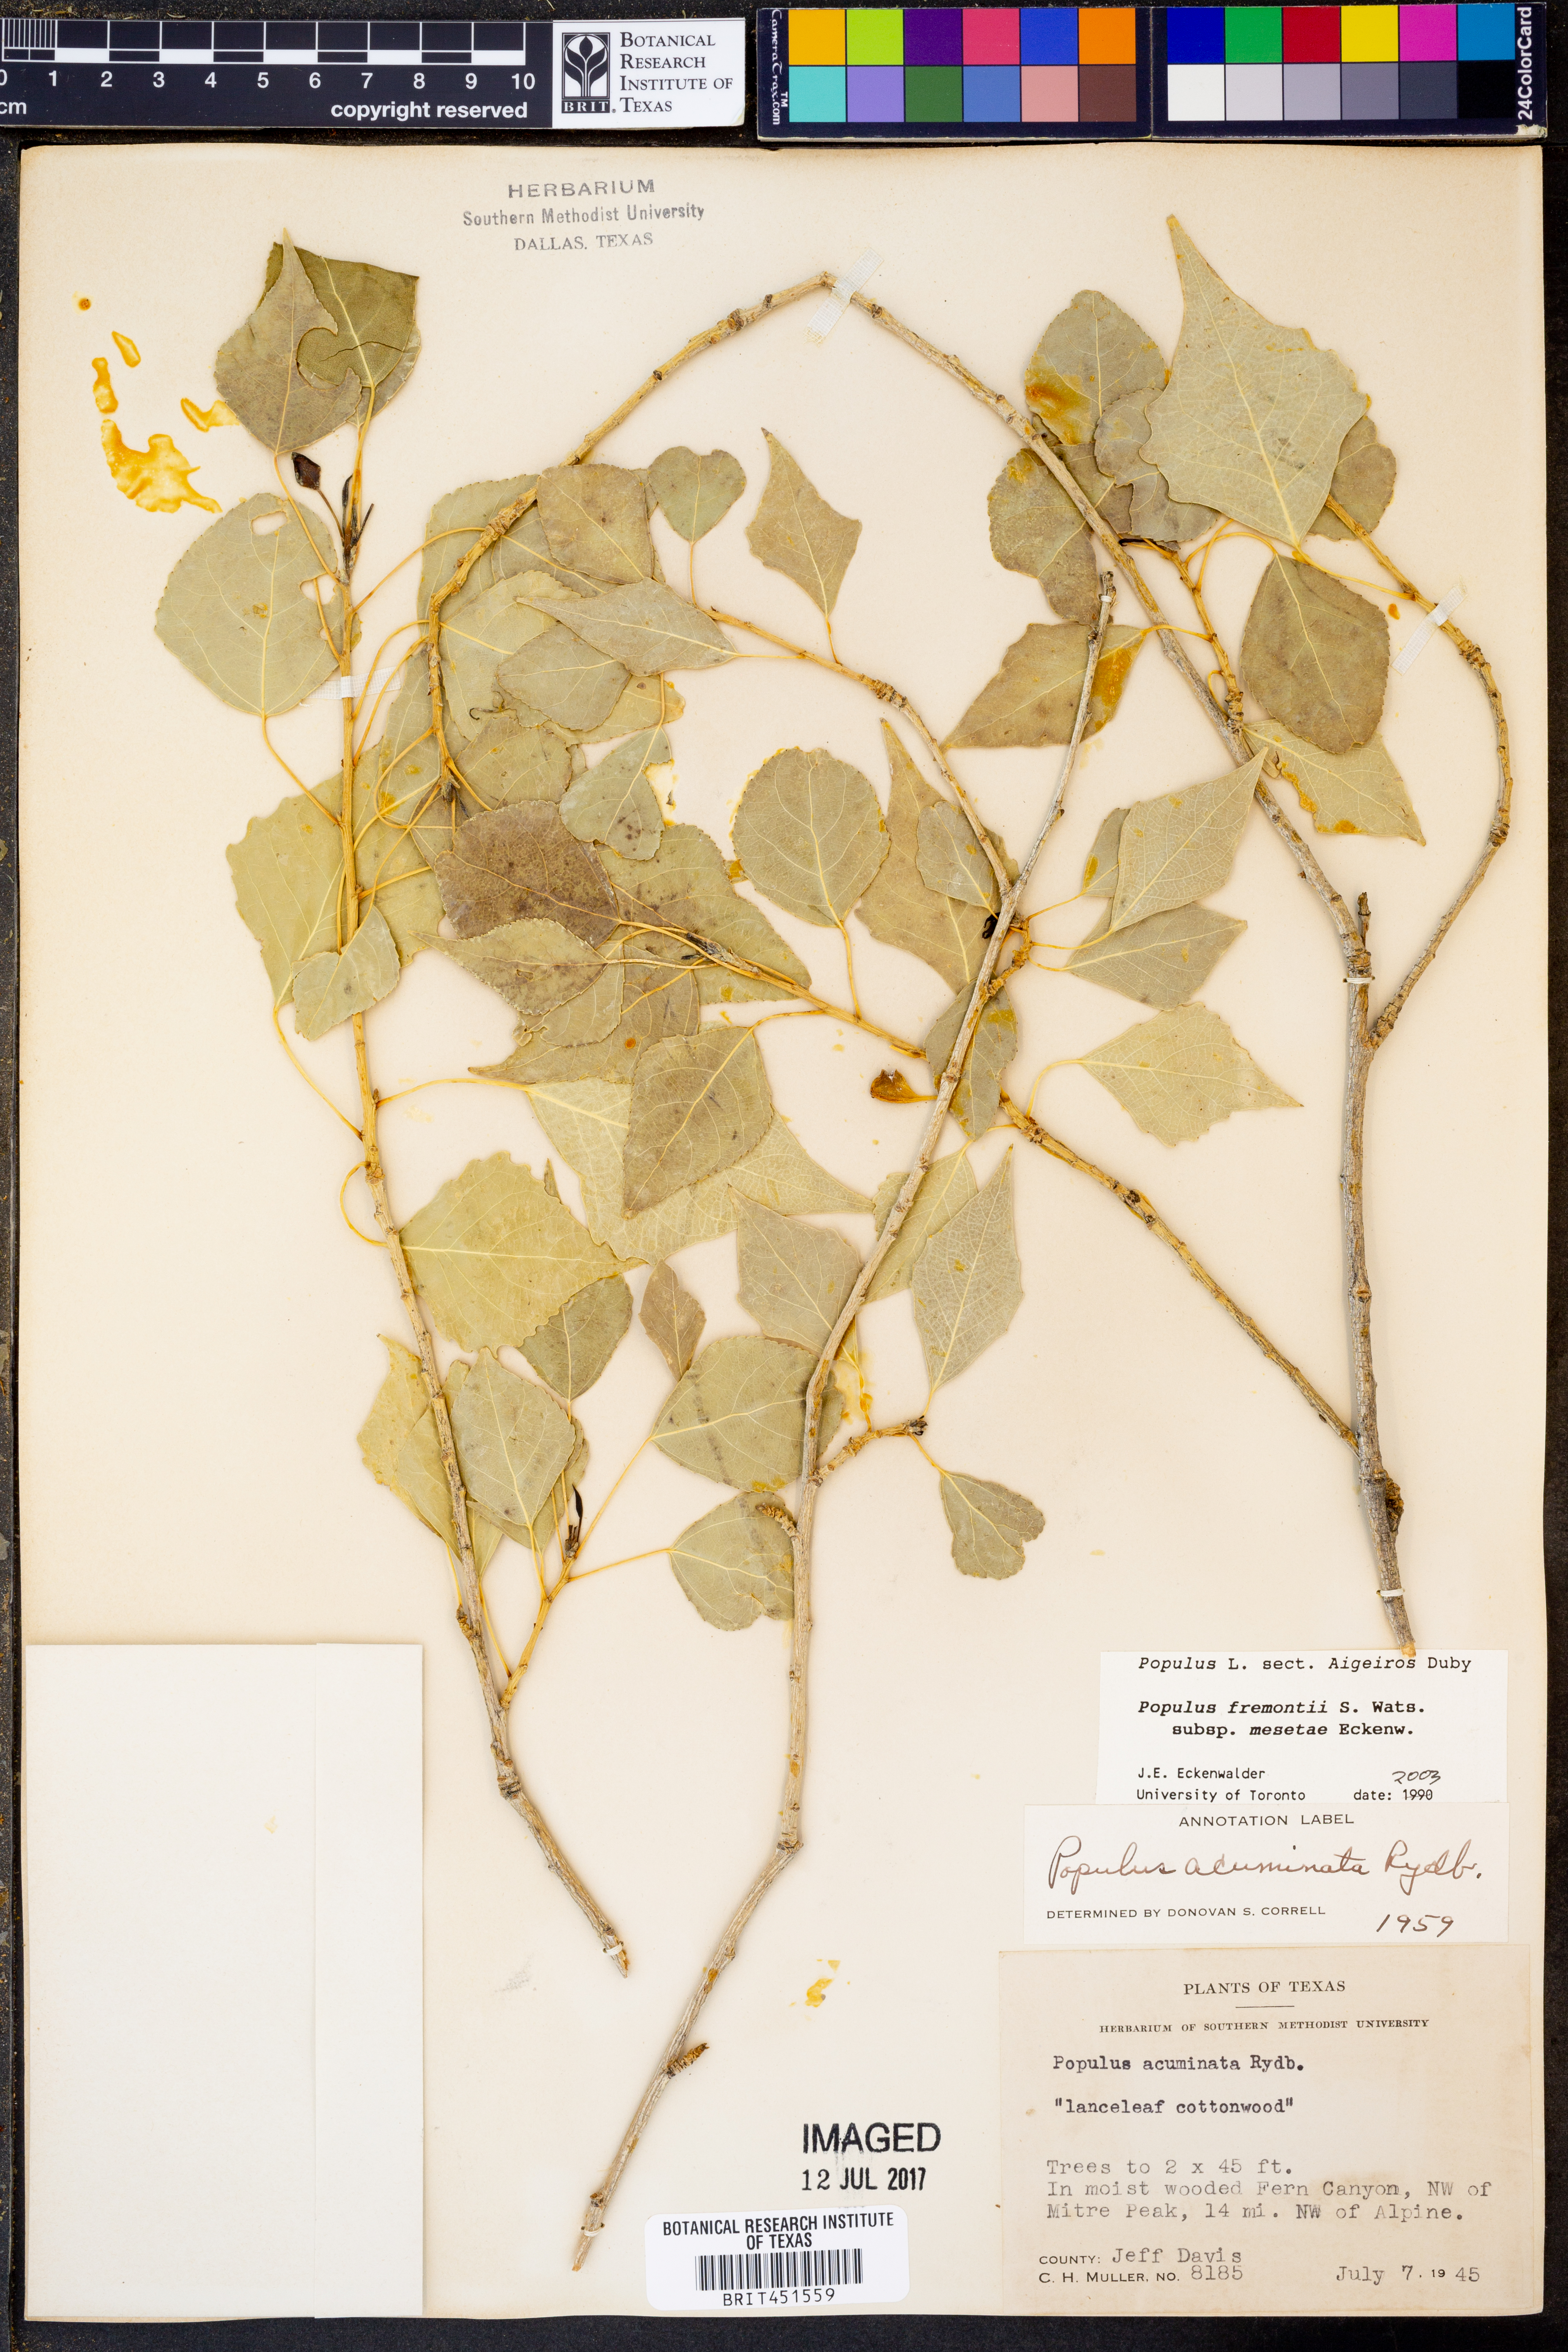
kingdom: Plantae
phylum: Tracheophyta
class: Magnoliopsida
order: Malpighiales
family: Salicaceae
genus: Populus
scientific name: Populus fremontii
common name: Fremont's cottonwood
